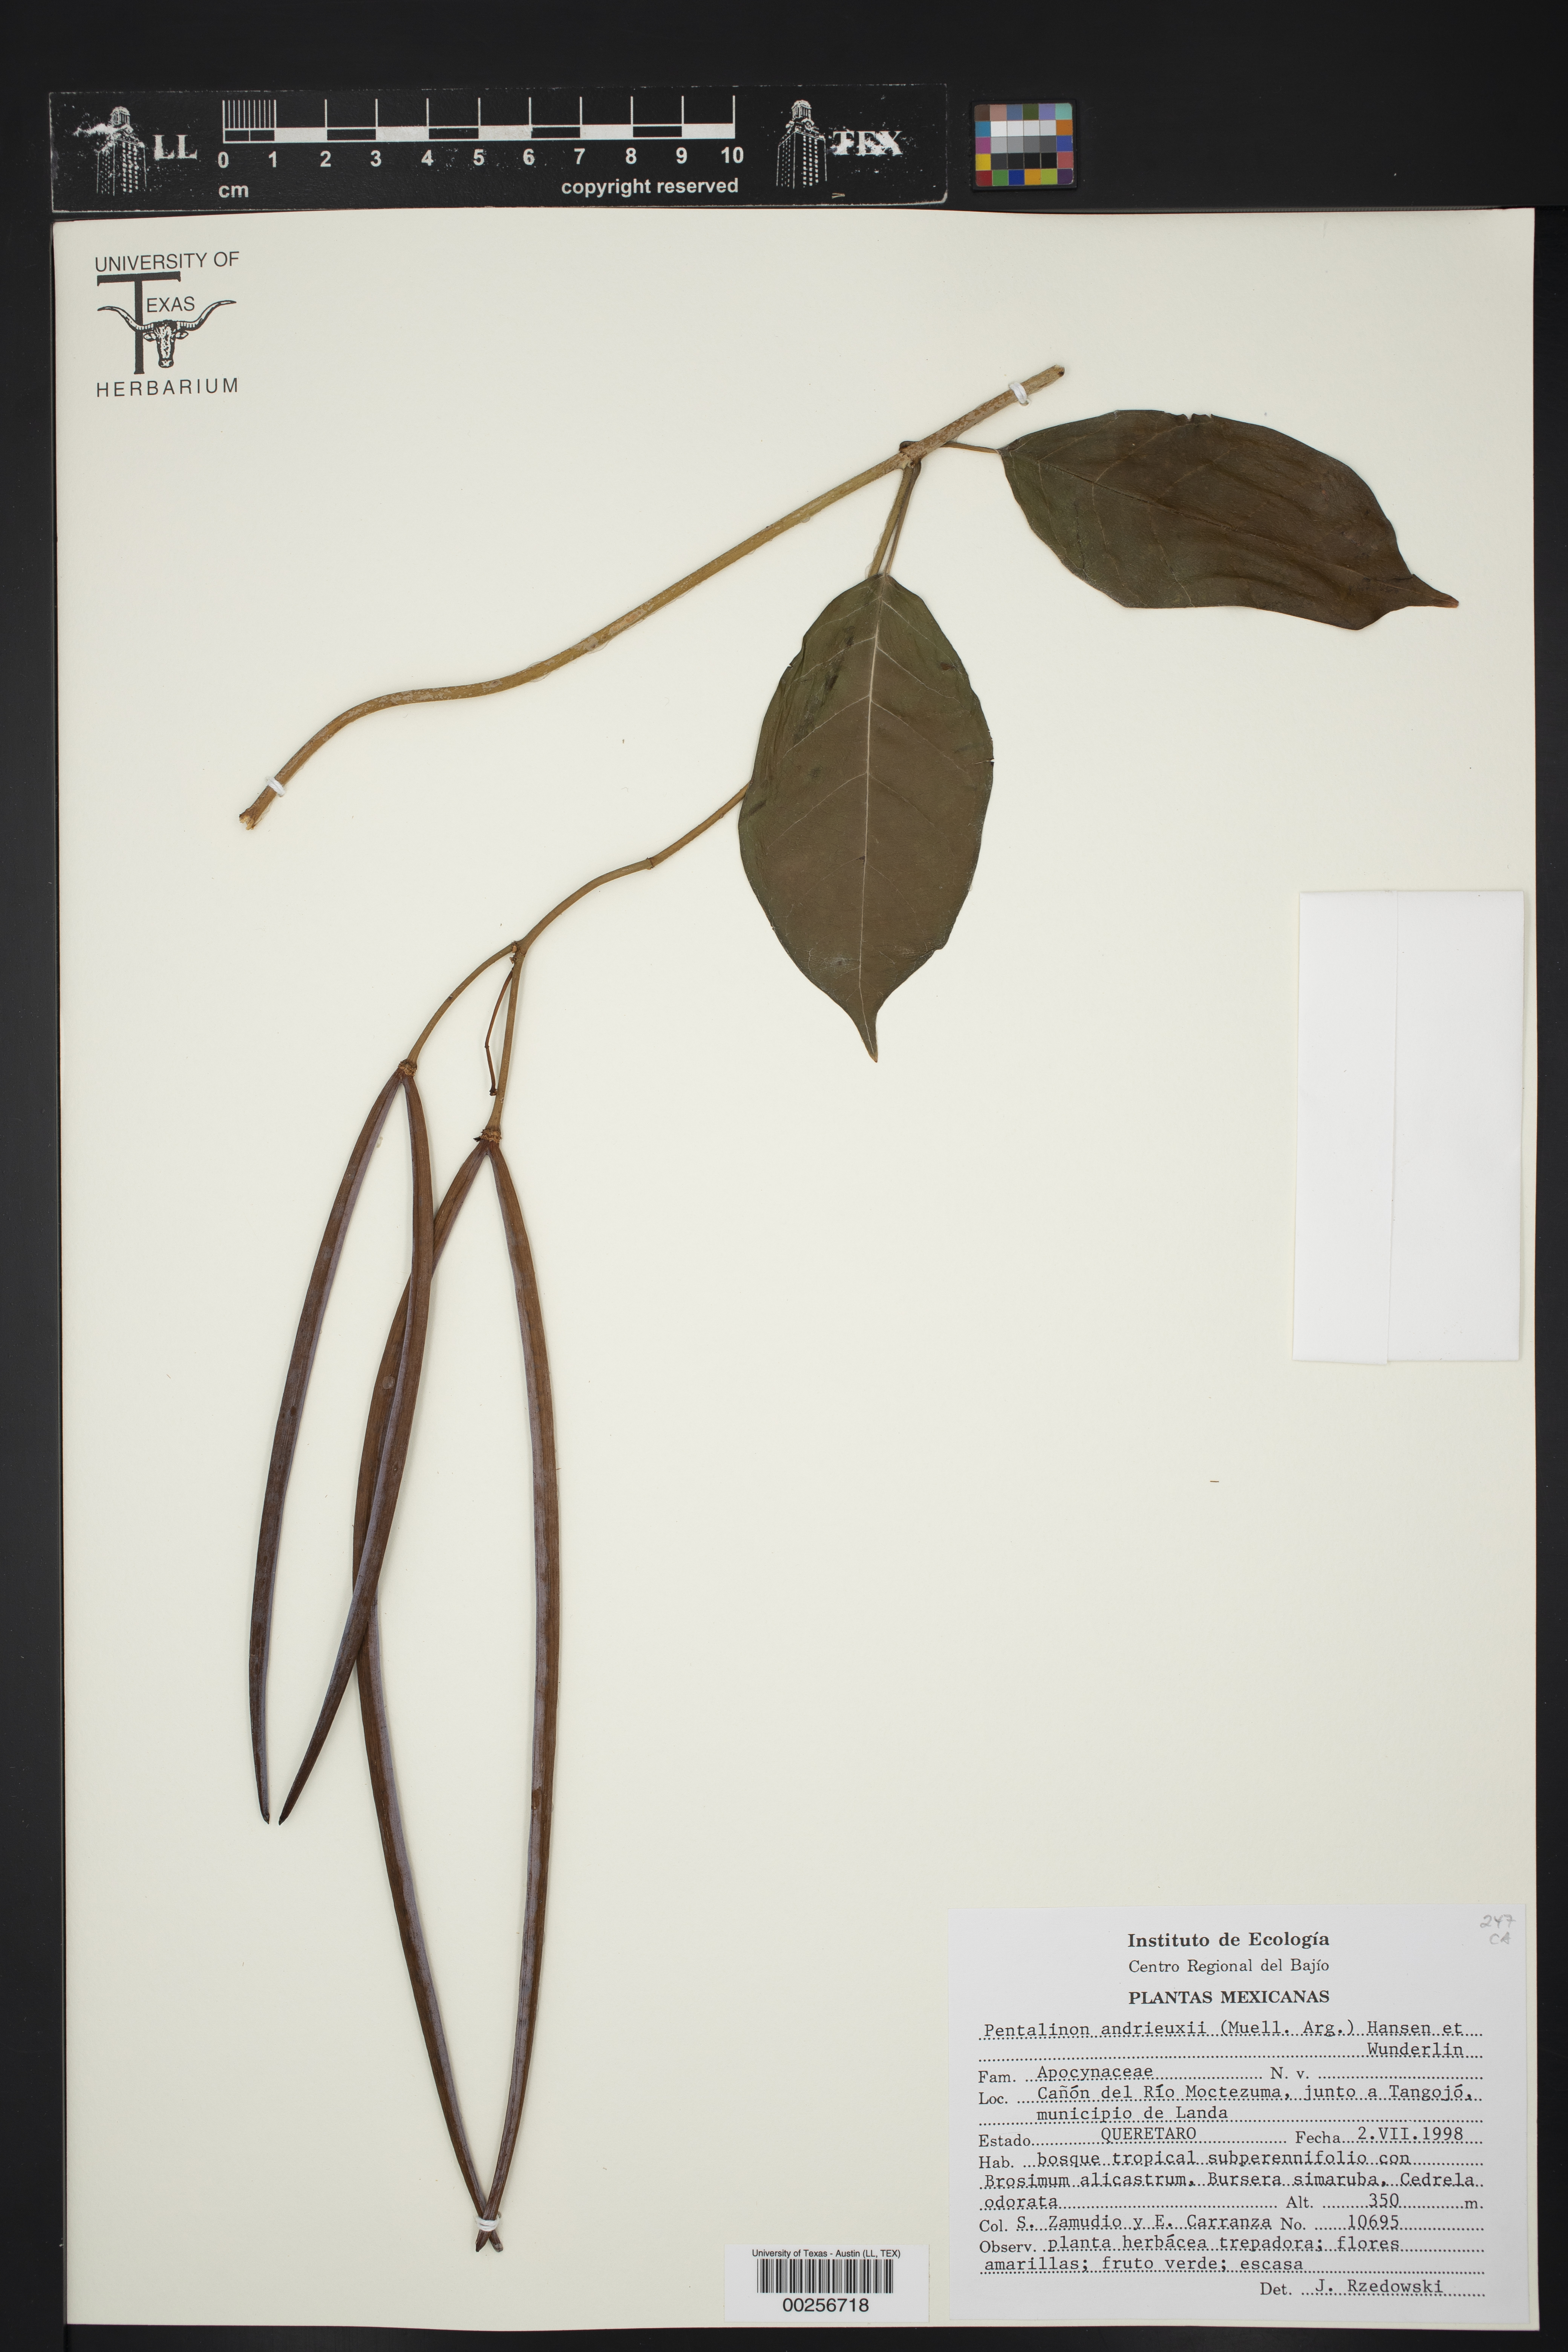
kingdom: Plantae
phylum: Tracheophyta
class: Magnoliopsida
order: Gentianales
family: Apocynaceae
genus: Pentalinon
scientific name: Pentalinon andrieuxii
